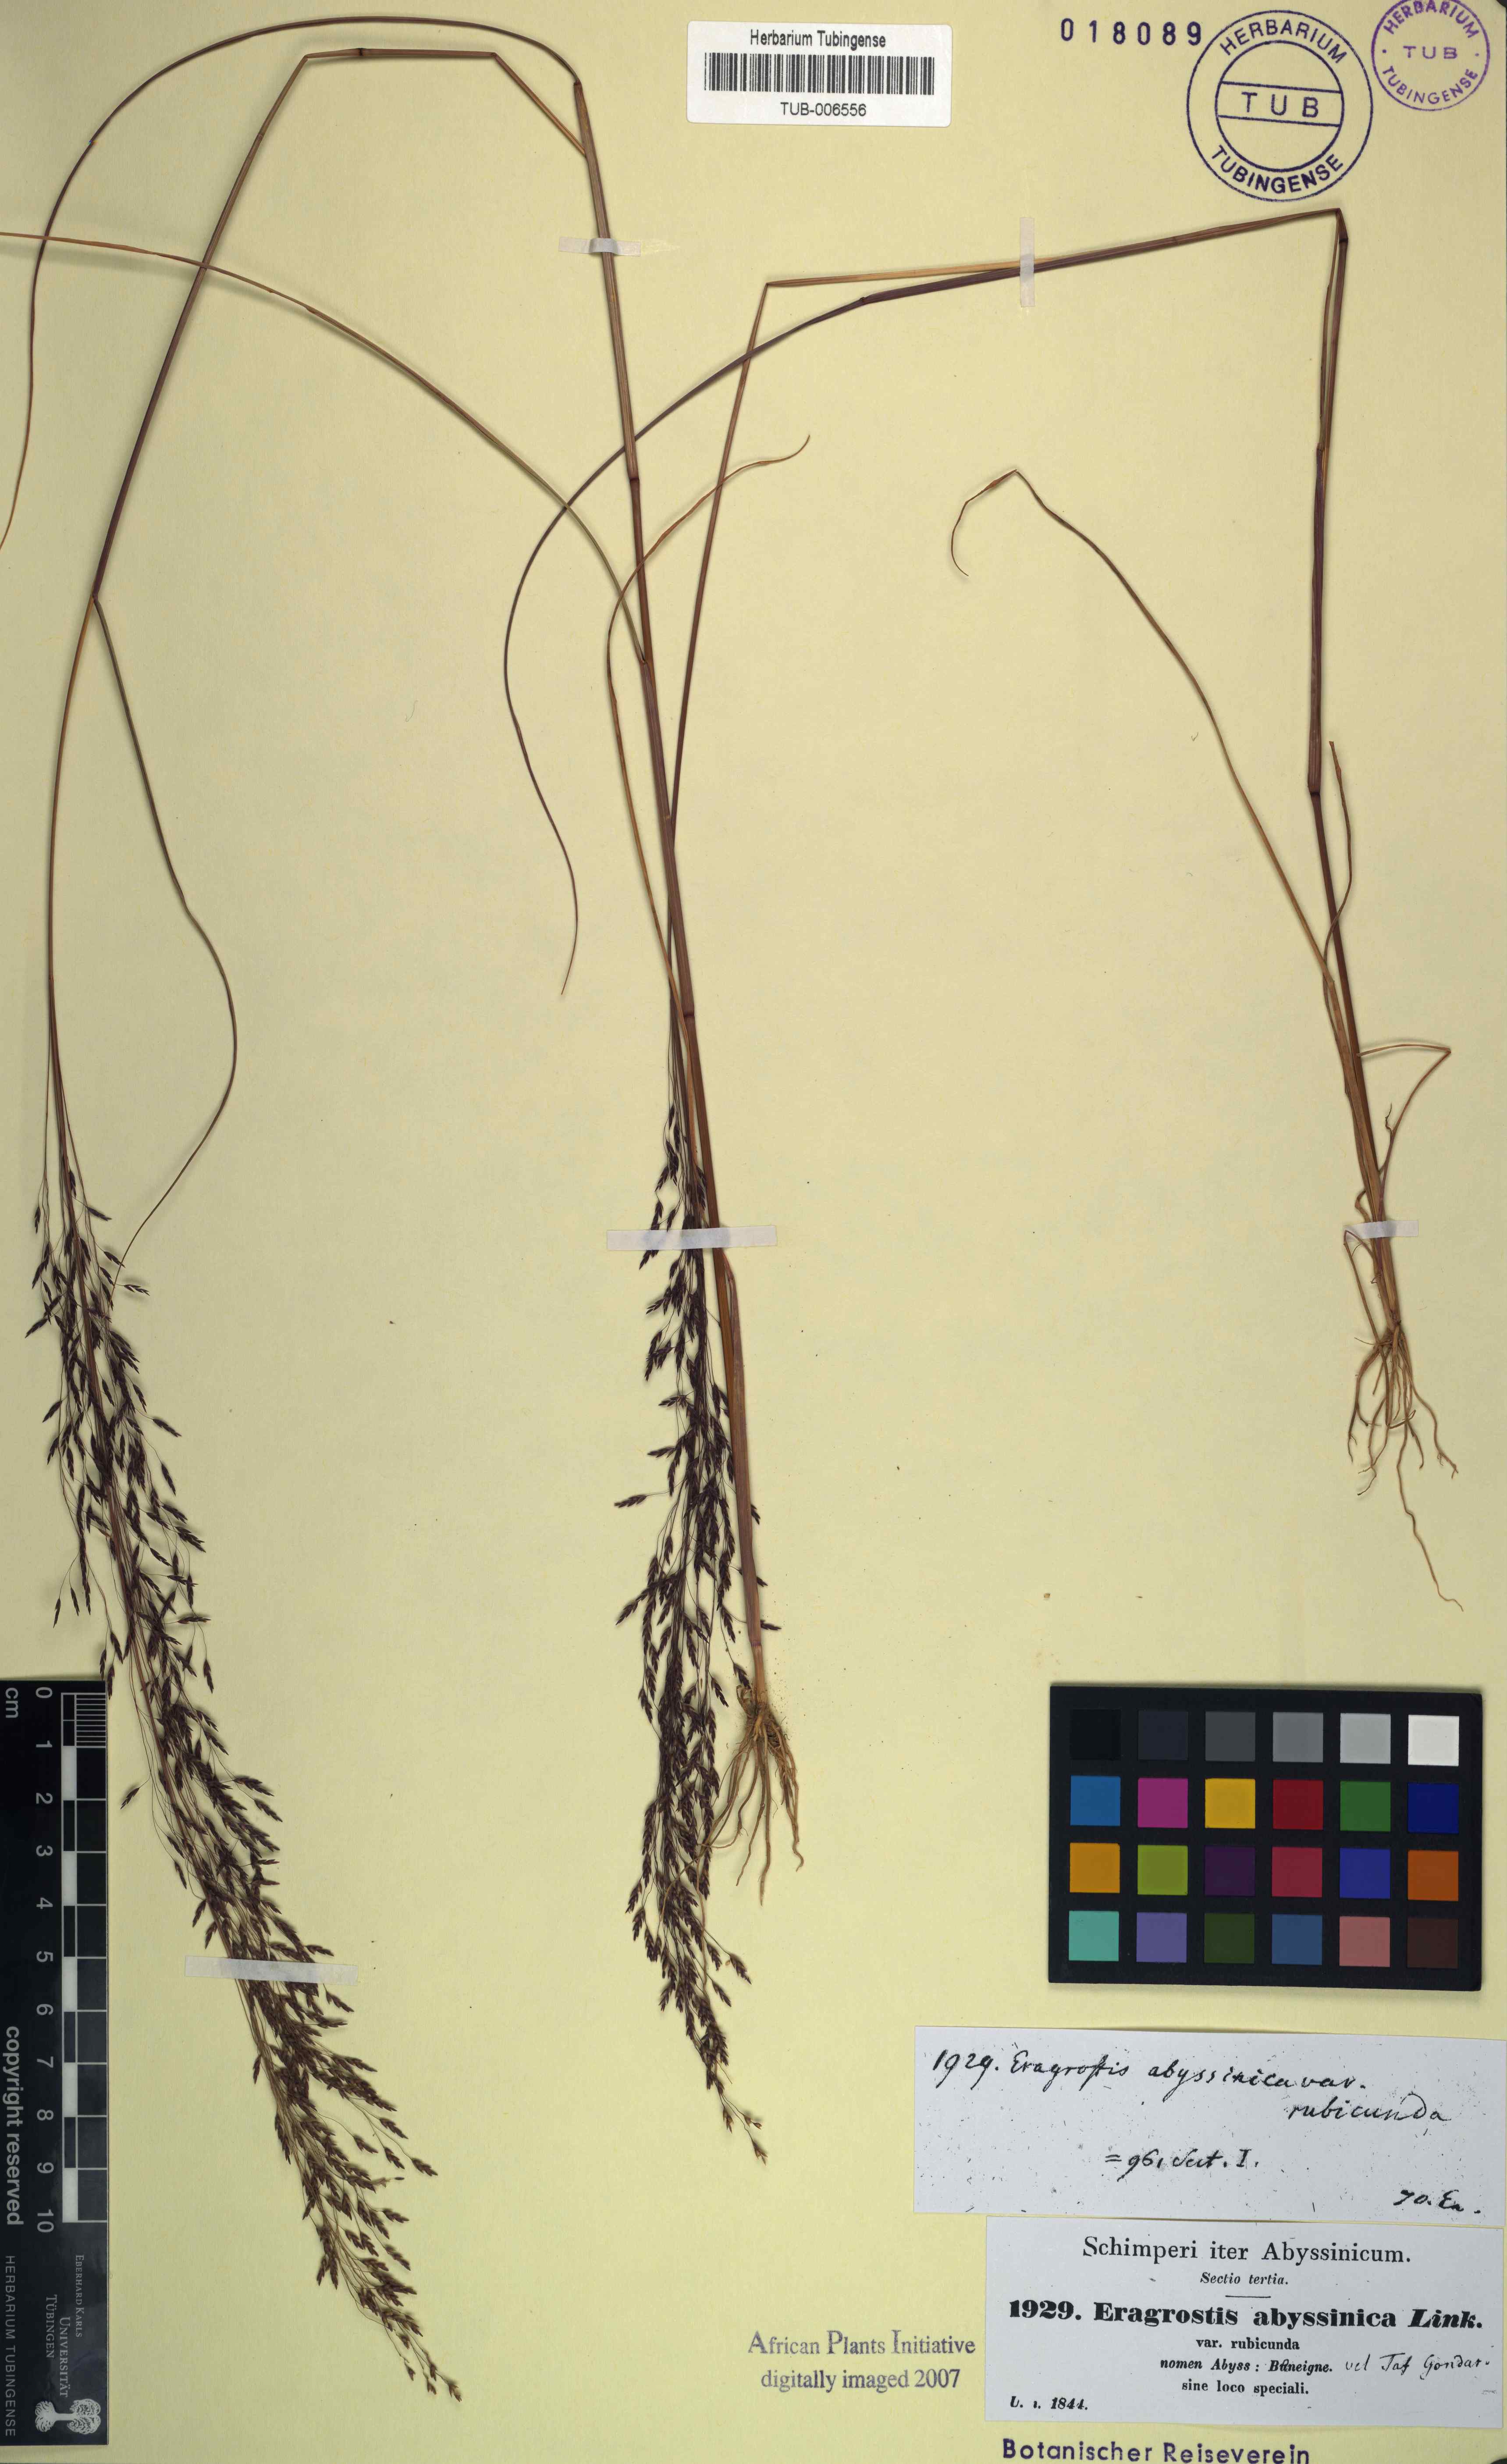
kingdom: Plantae
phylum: Tracheophyta
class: Liliopsida
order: Poales
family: Poaceae
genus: Eragrostis
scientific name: Eragrostis tef
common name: Teff
